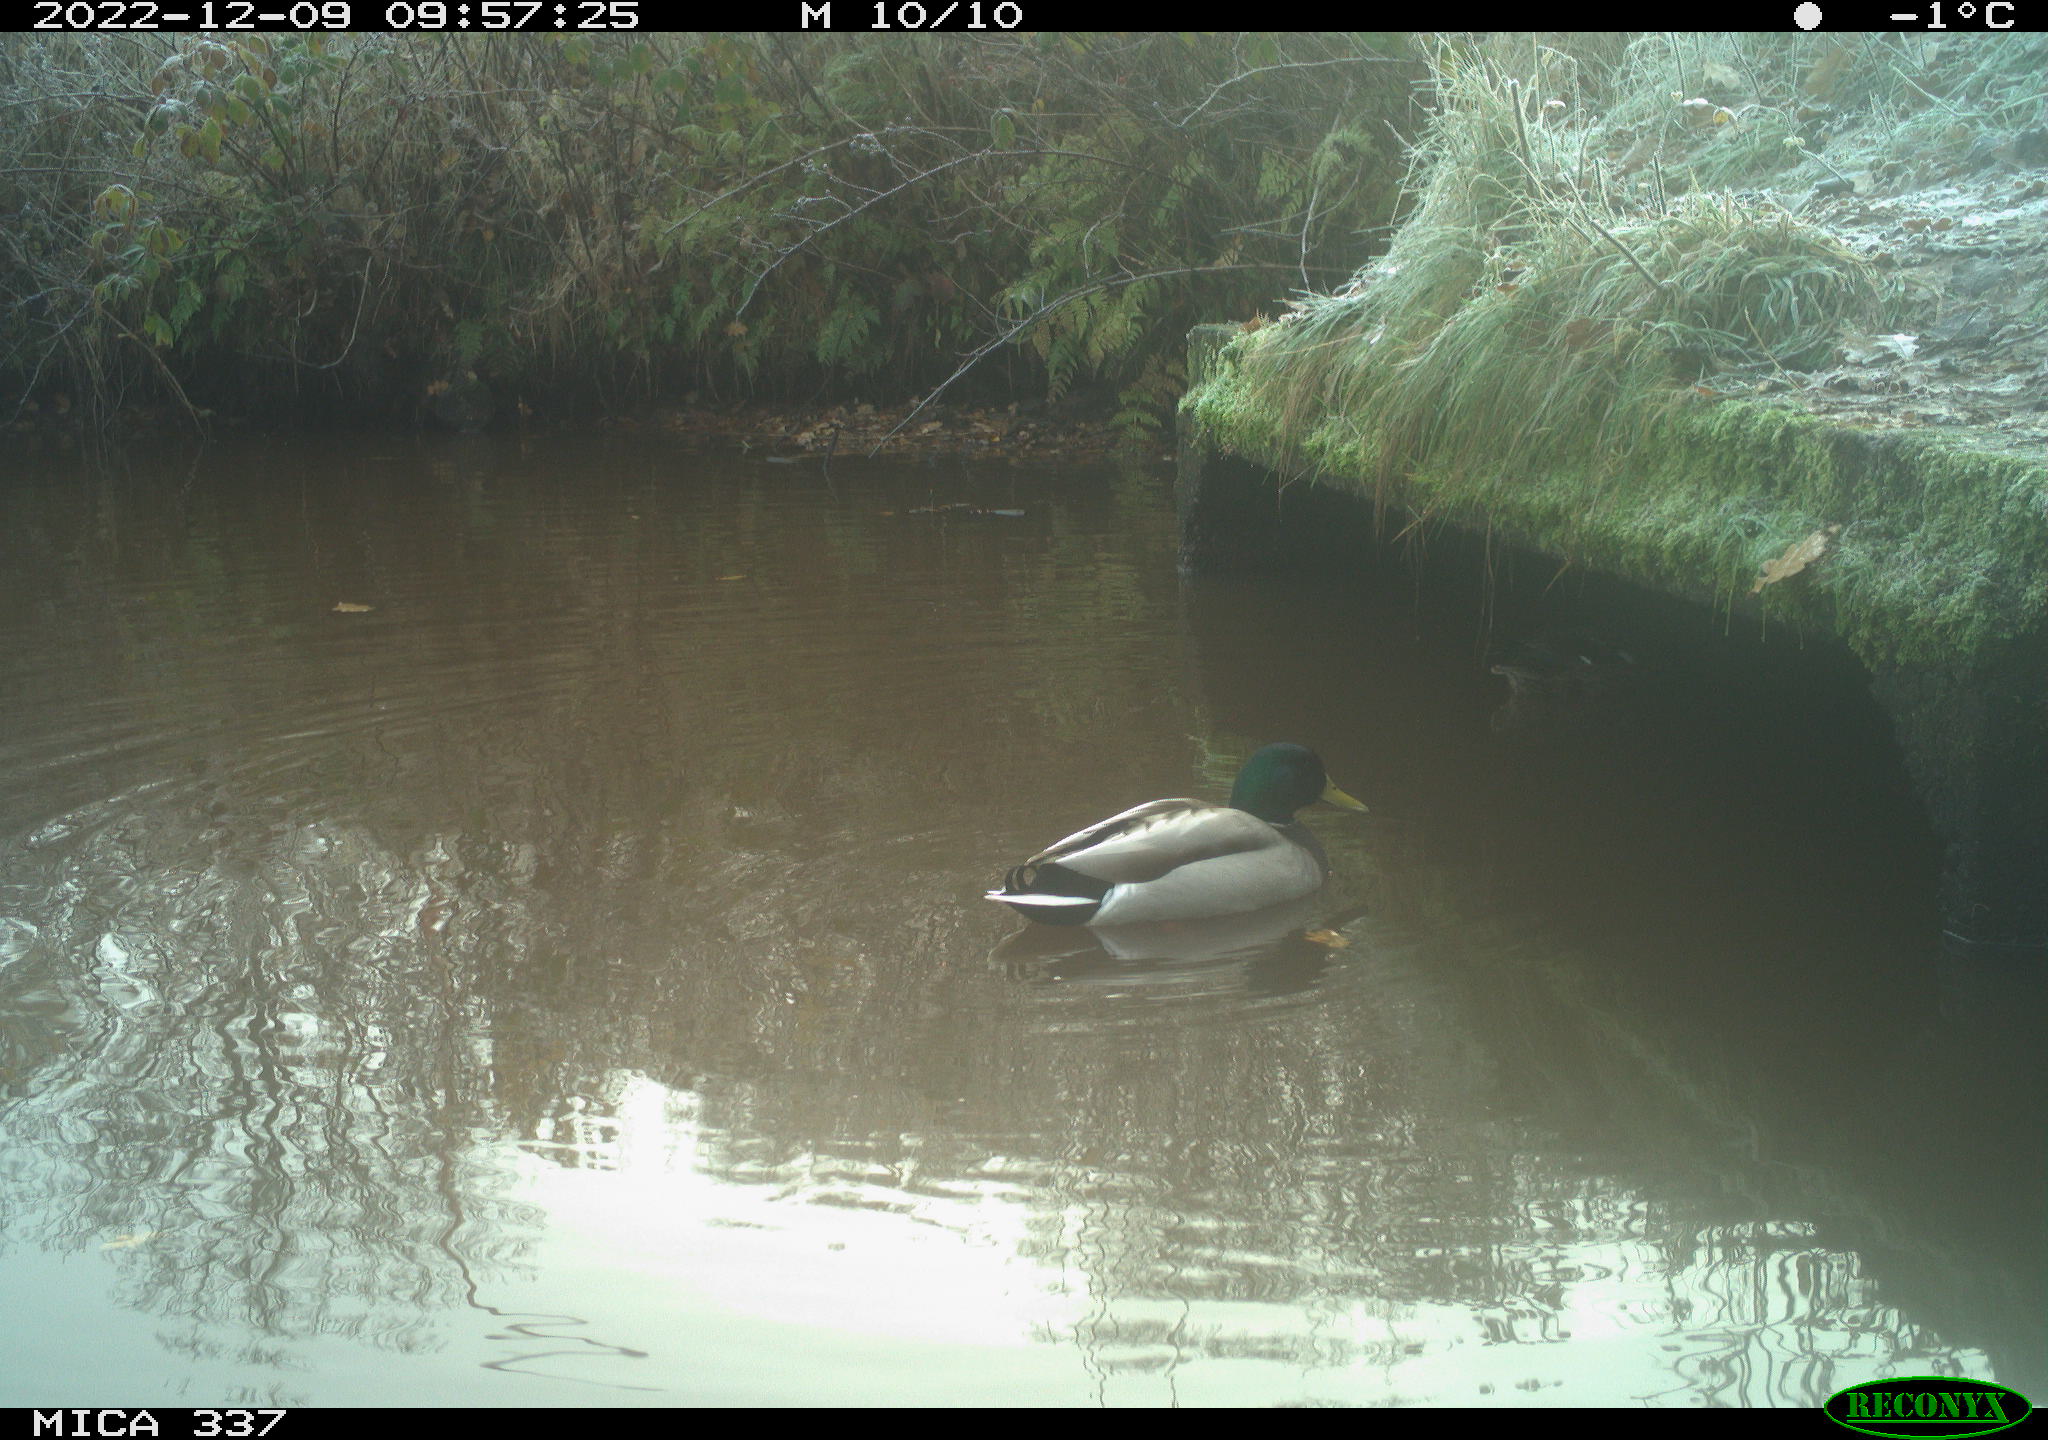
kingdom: Animalia
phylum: Chordata
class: Aves
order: Anseriformes
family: Anatidae
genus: Anas
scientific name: Anas
